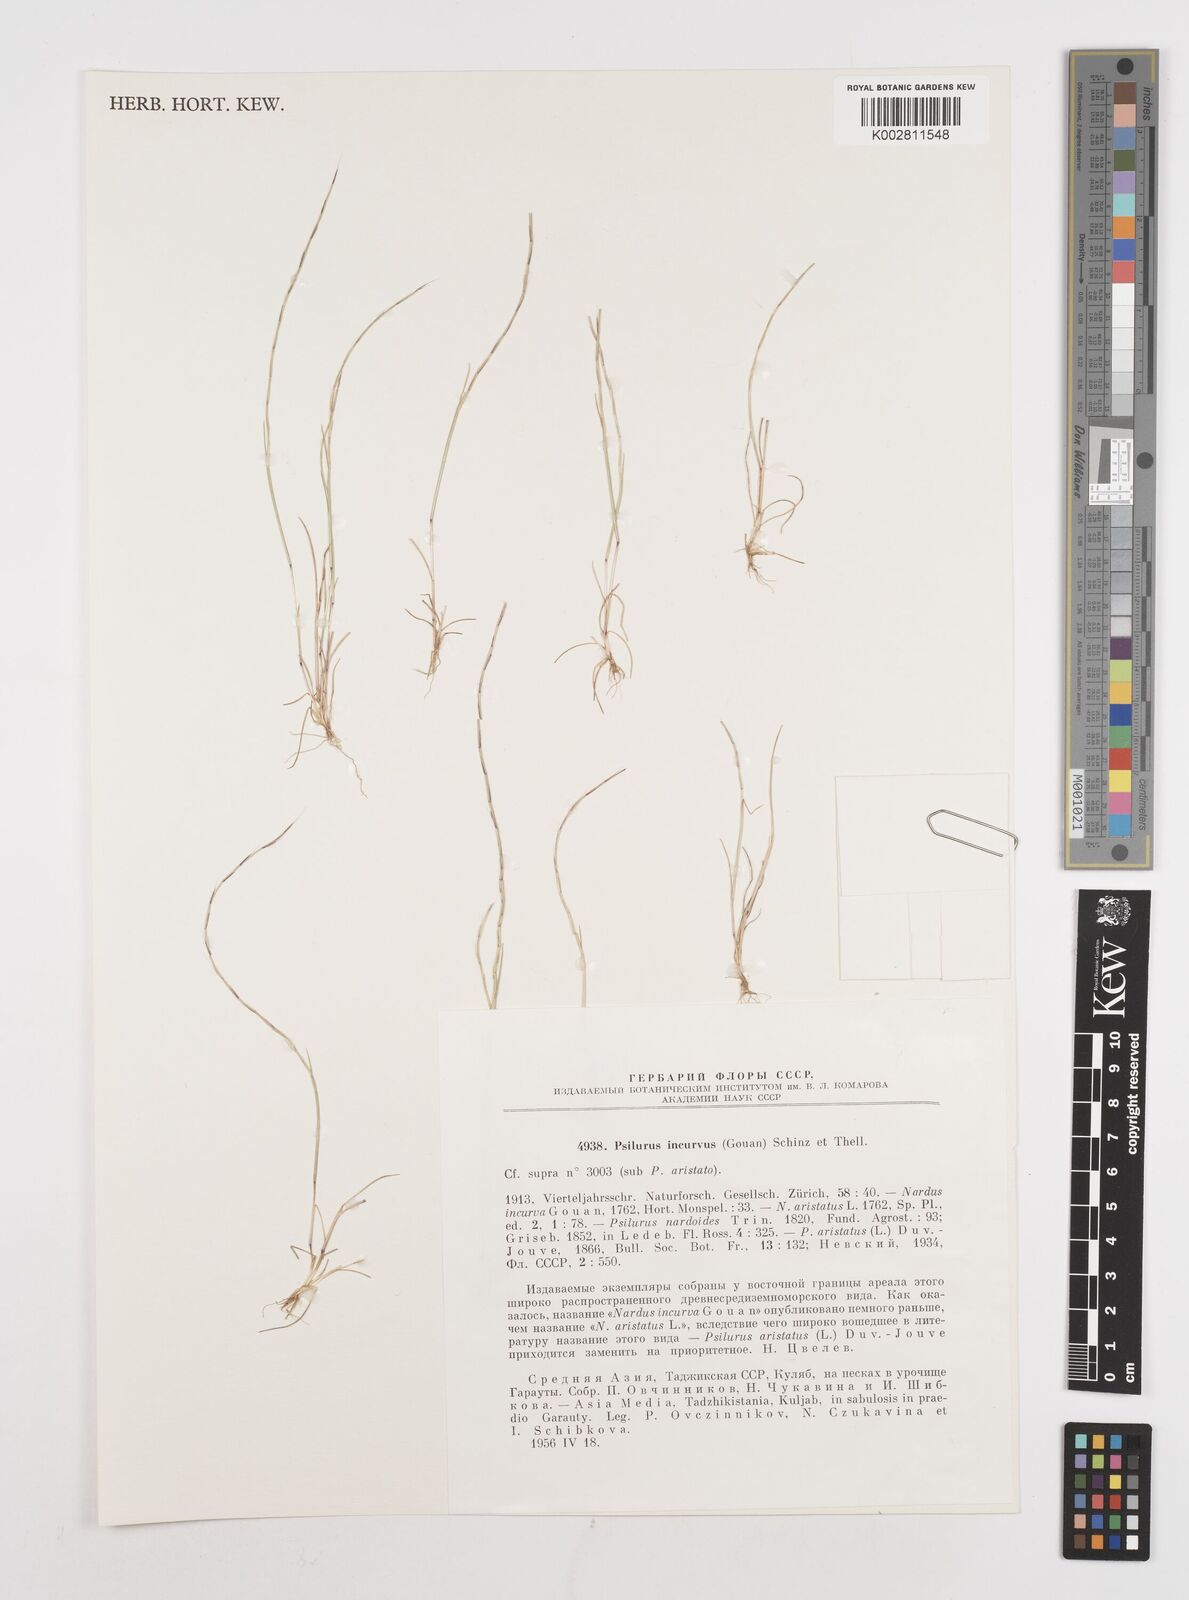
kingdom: Plantae
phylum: Tracheophyta
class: Liliopsida
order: Poales
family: Poaceae
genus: Festuca
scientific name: Festuca incurva
